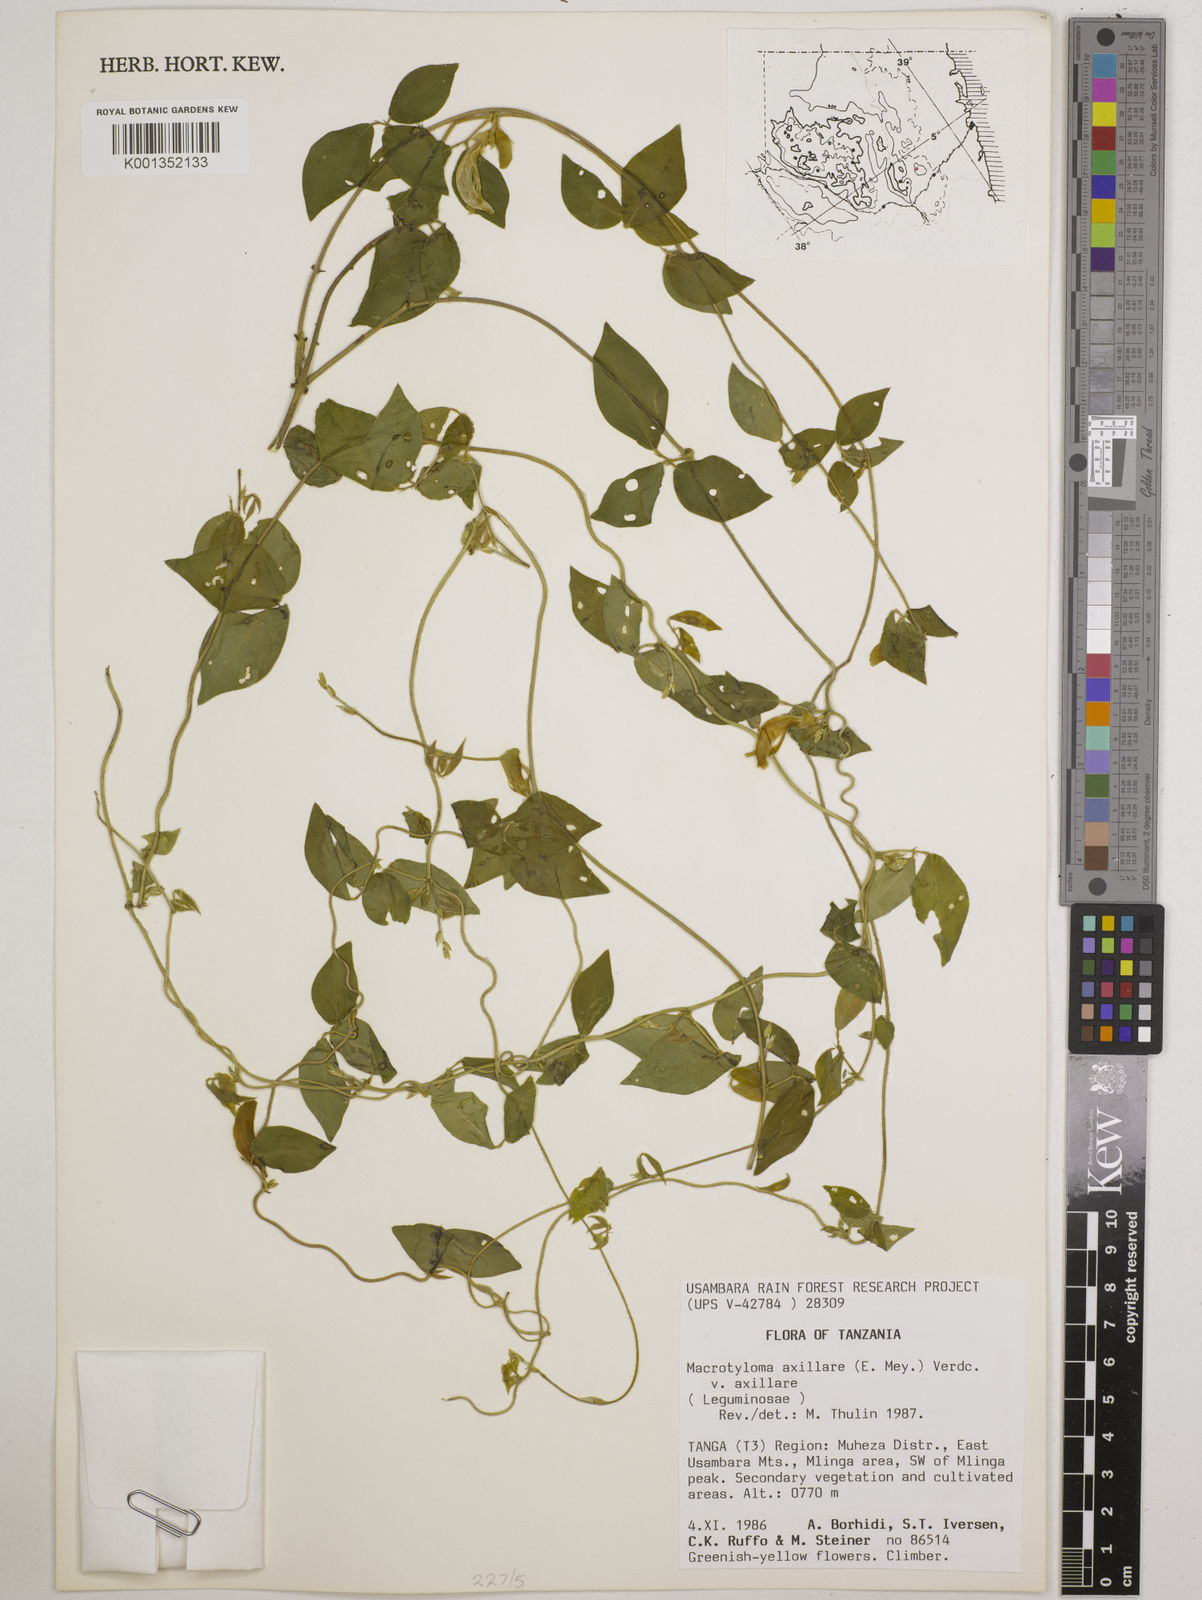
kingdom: Plantae
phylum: Tracheophyta
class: Magnoliopsida
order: Fabales
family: Fabaceae
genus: Macrotyloma
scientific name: Macrotyloma axillare
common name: Perennial horsegram
